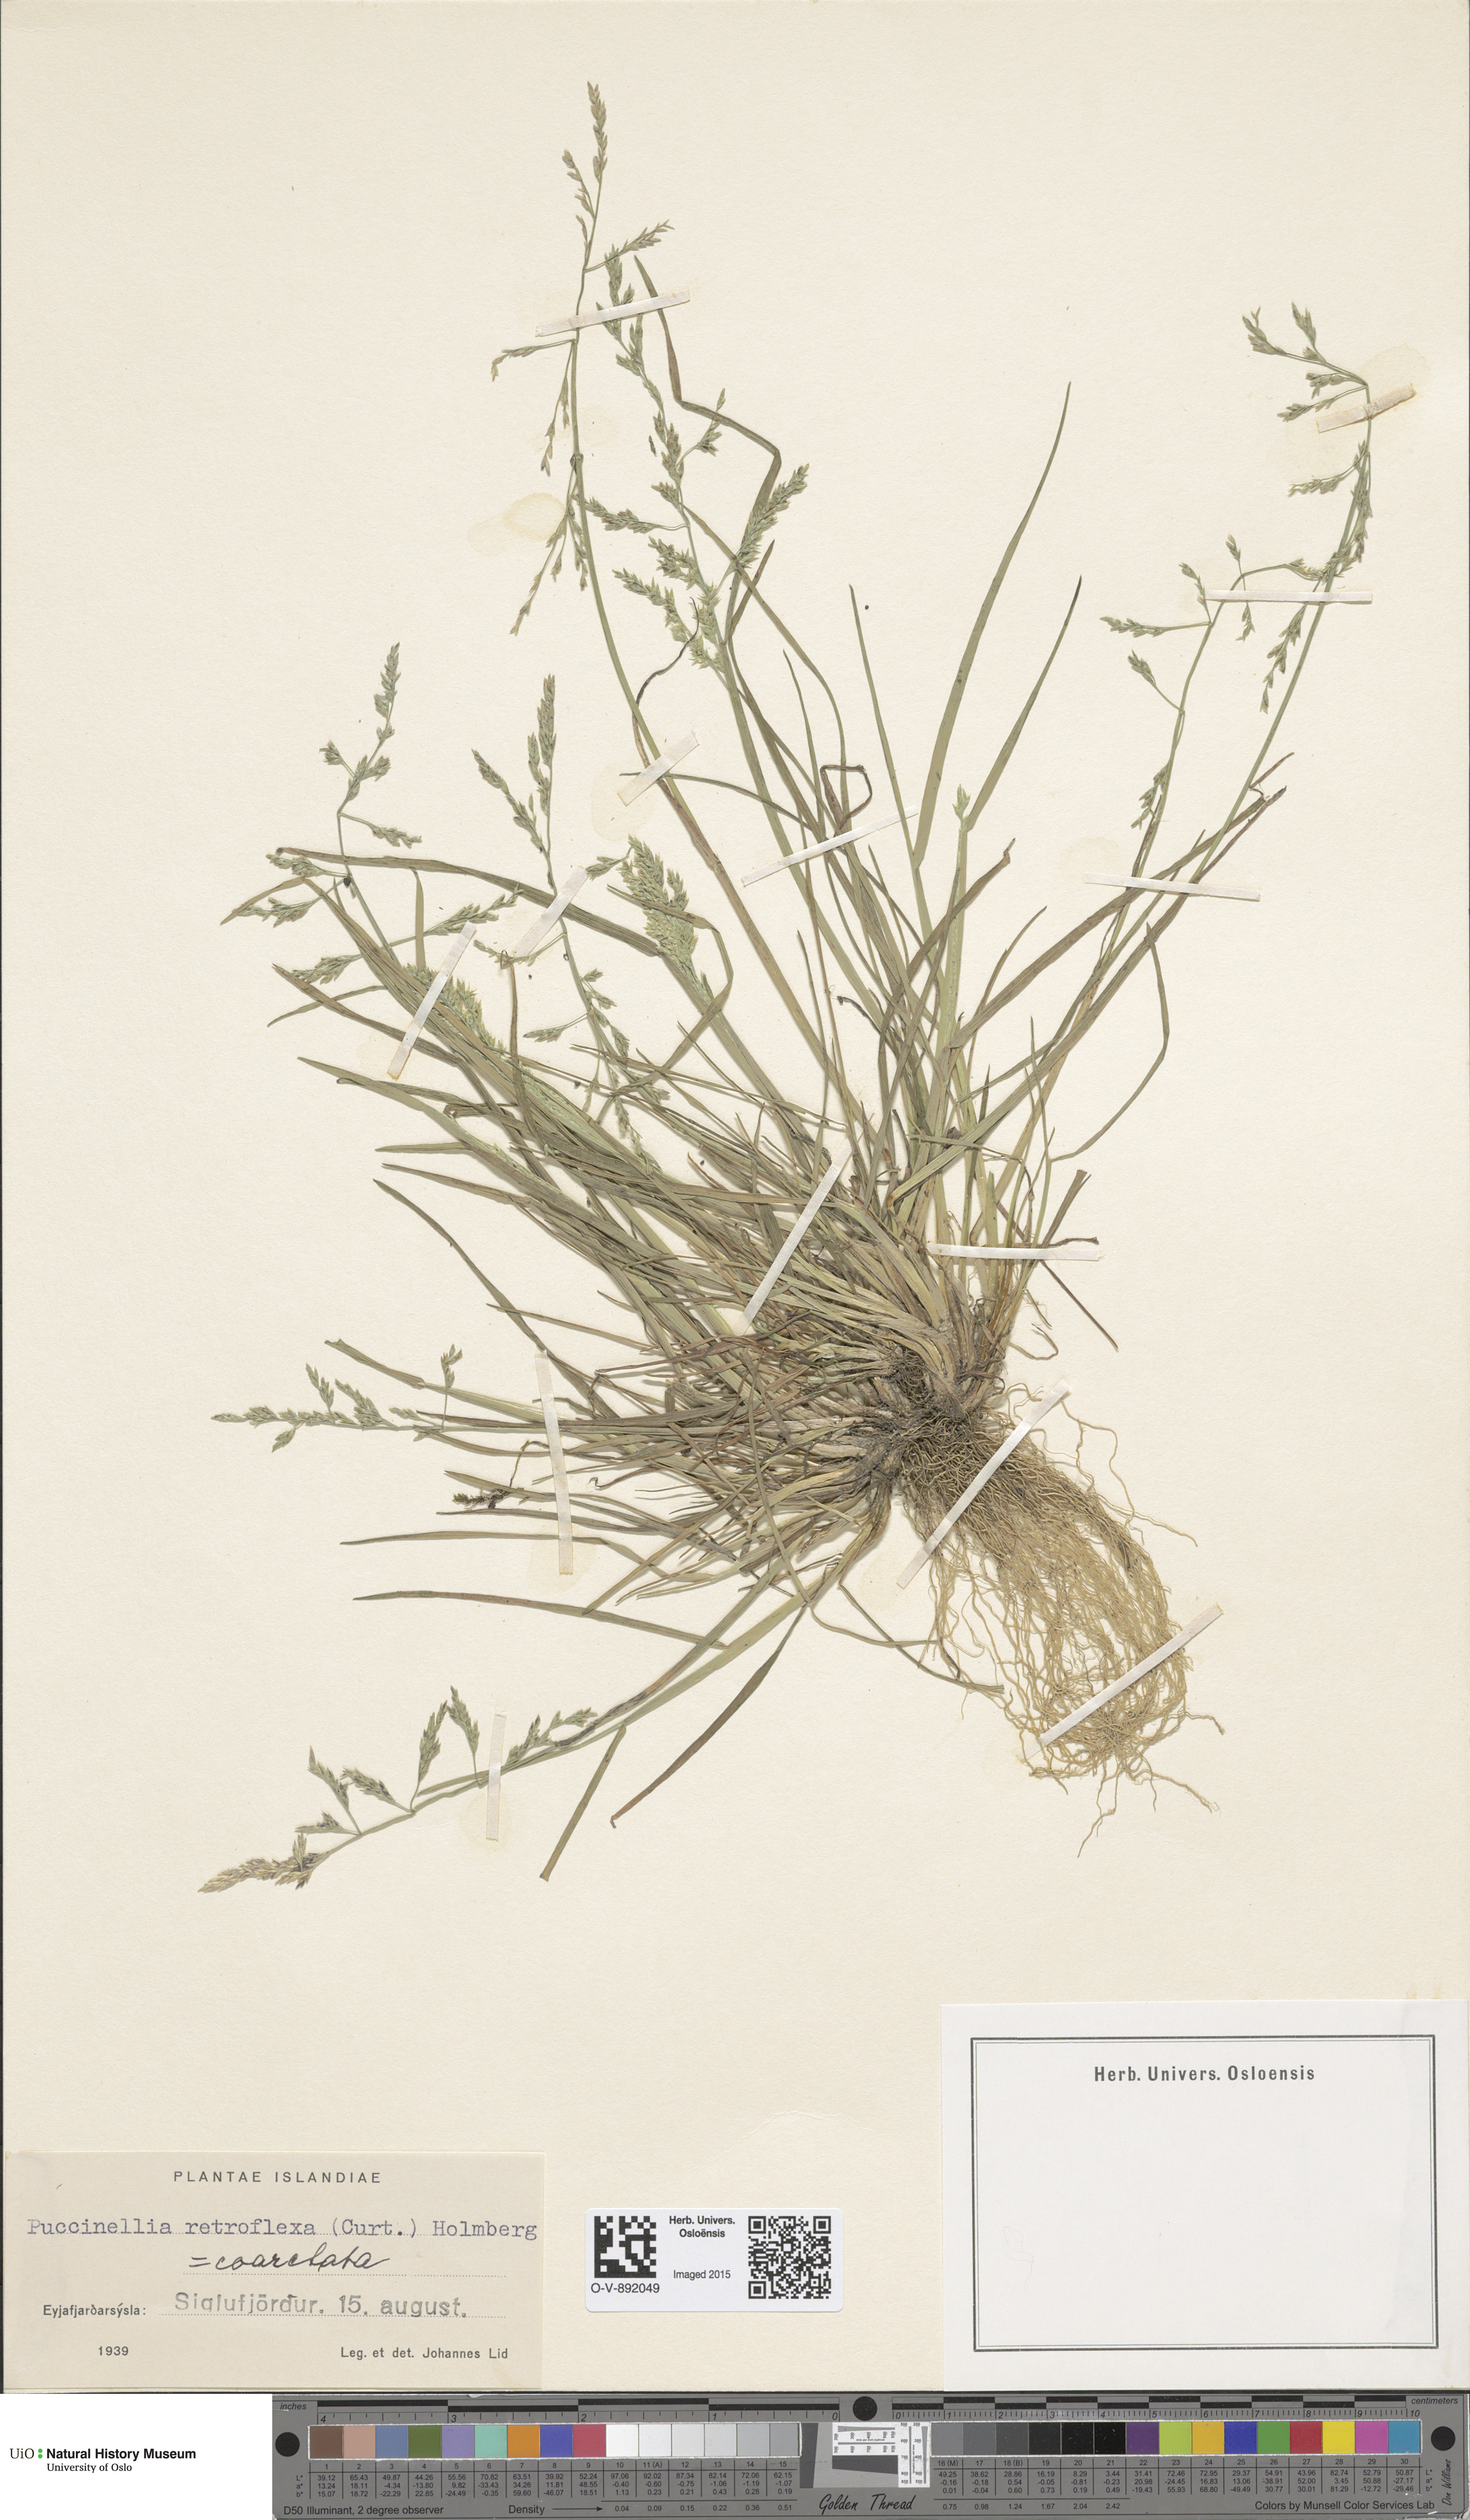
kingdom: Plantae
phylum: Tracheophyta
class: Liliopsida
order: Poales
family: Poaceae
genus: Puccinellia
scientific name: Puccinellia distans
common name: Weeping alkaligrass
